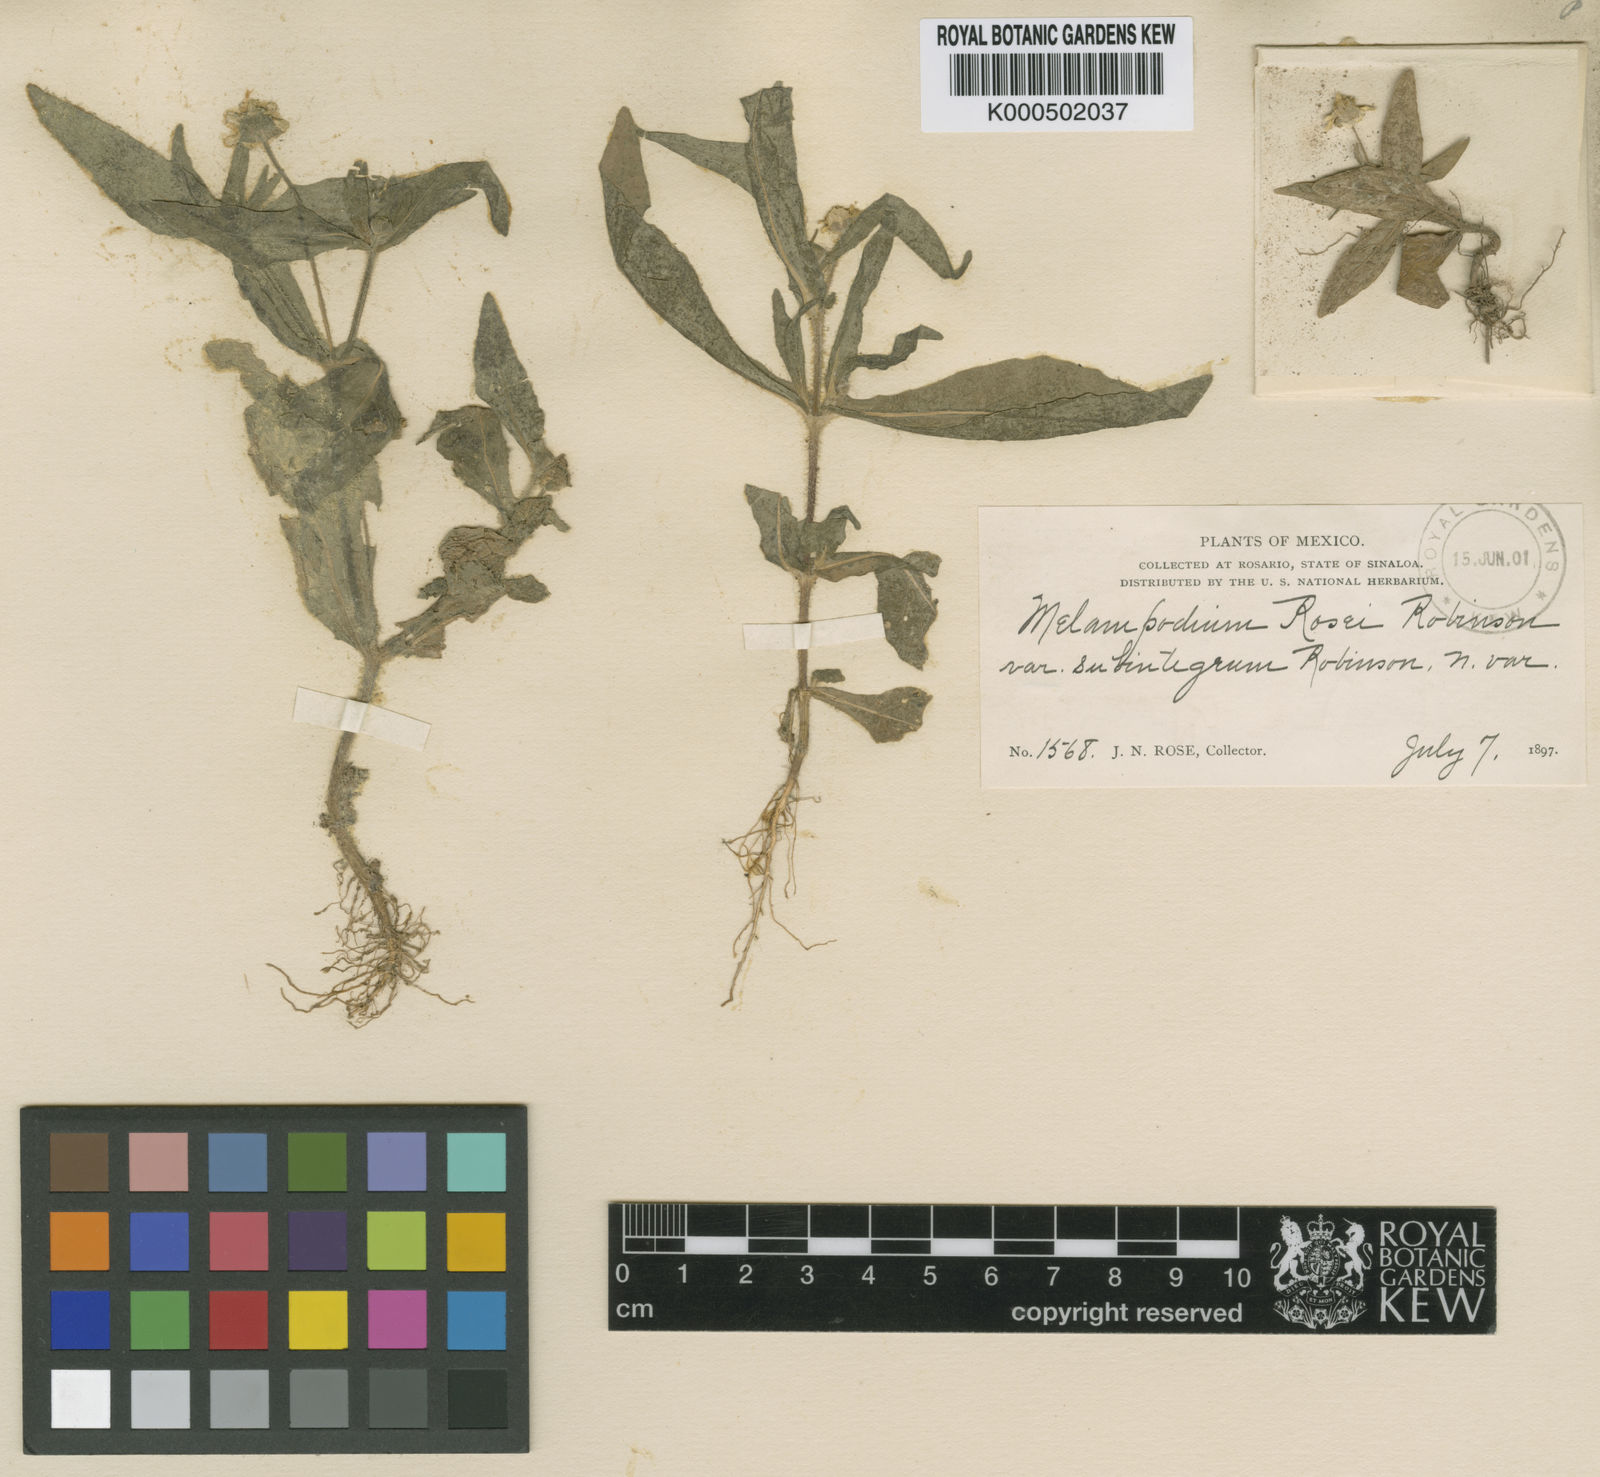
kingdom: Plantae
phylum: Tracheophyta
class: Magnoliopsida
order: Asterales
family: Asteraceae
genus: Melampodium
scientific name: Melampodium rosei
